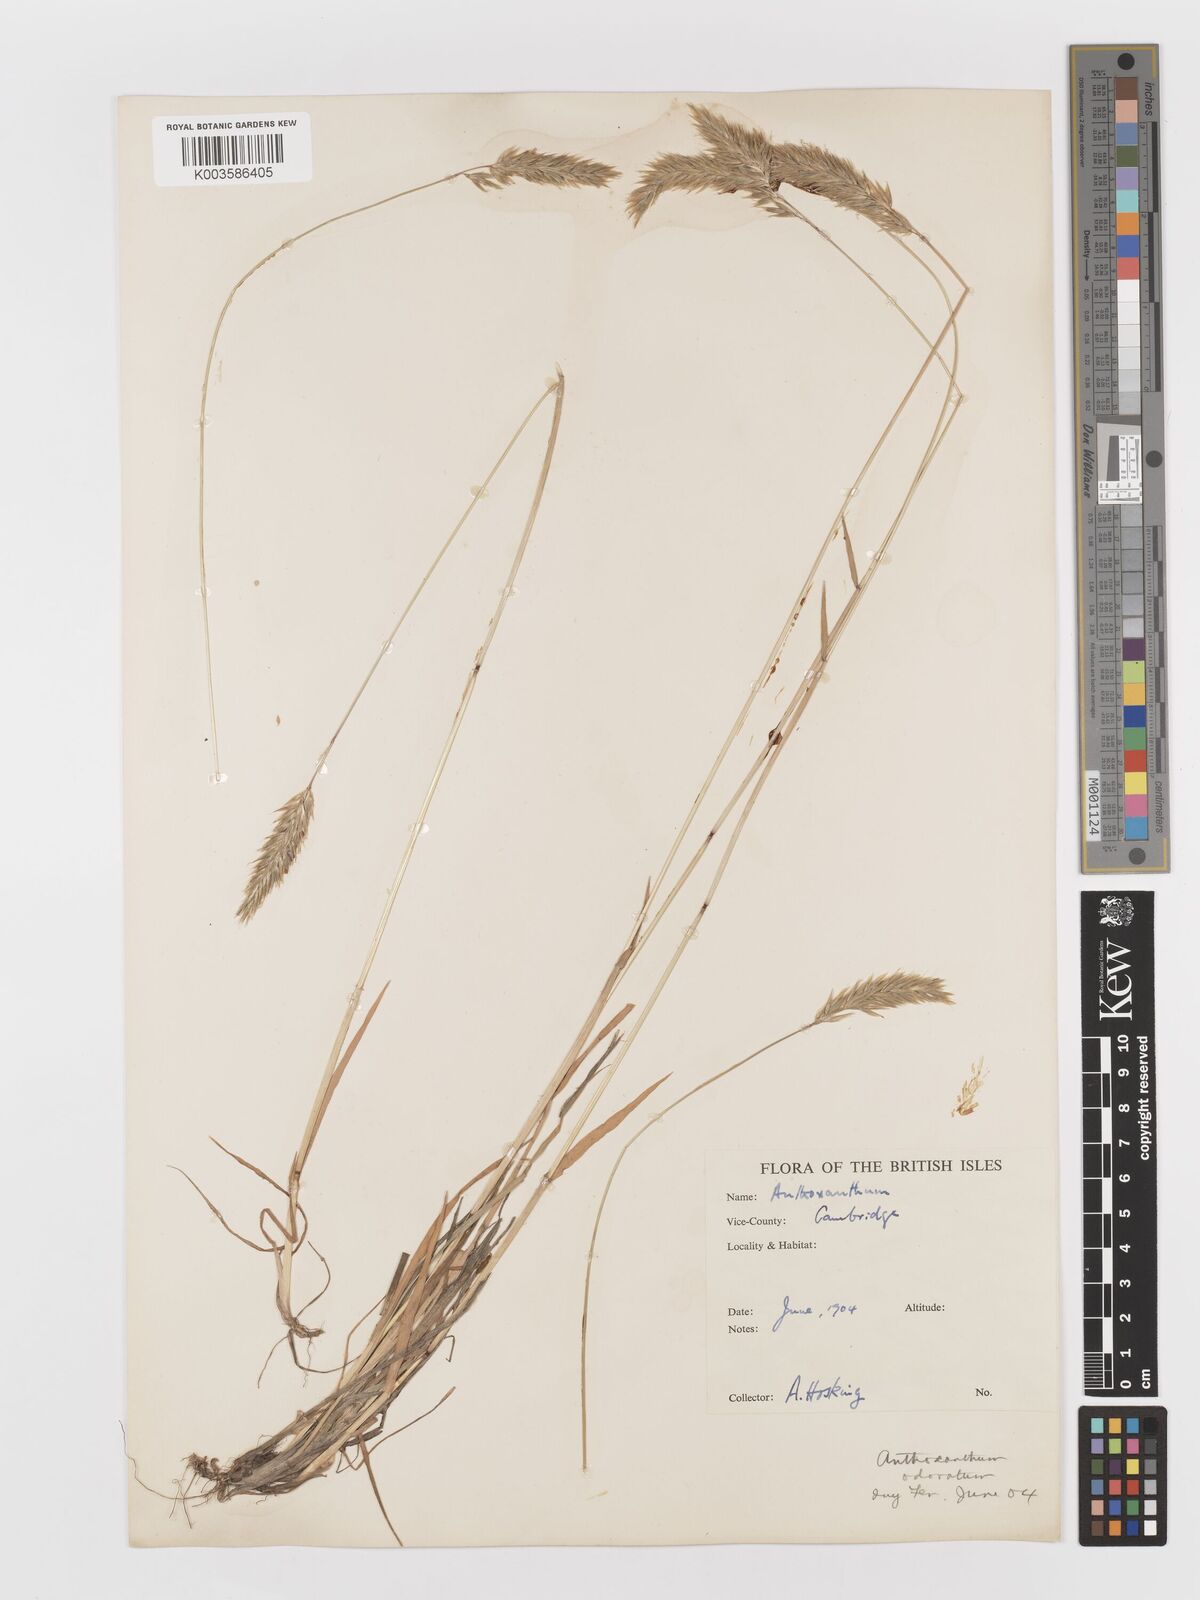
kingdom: Plantae
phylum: Tracheophyta
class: Liliopsida
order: Poales
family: Poaceae
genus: Anthoxanthum
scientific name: Anthoxanthum odoratum
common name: Sweet vernalgrass
